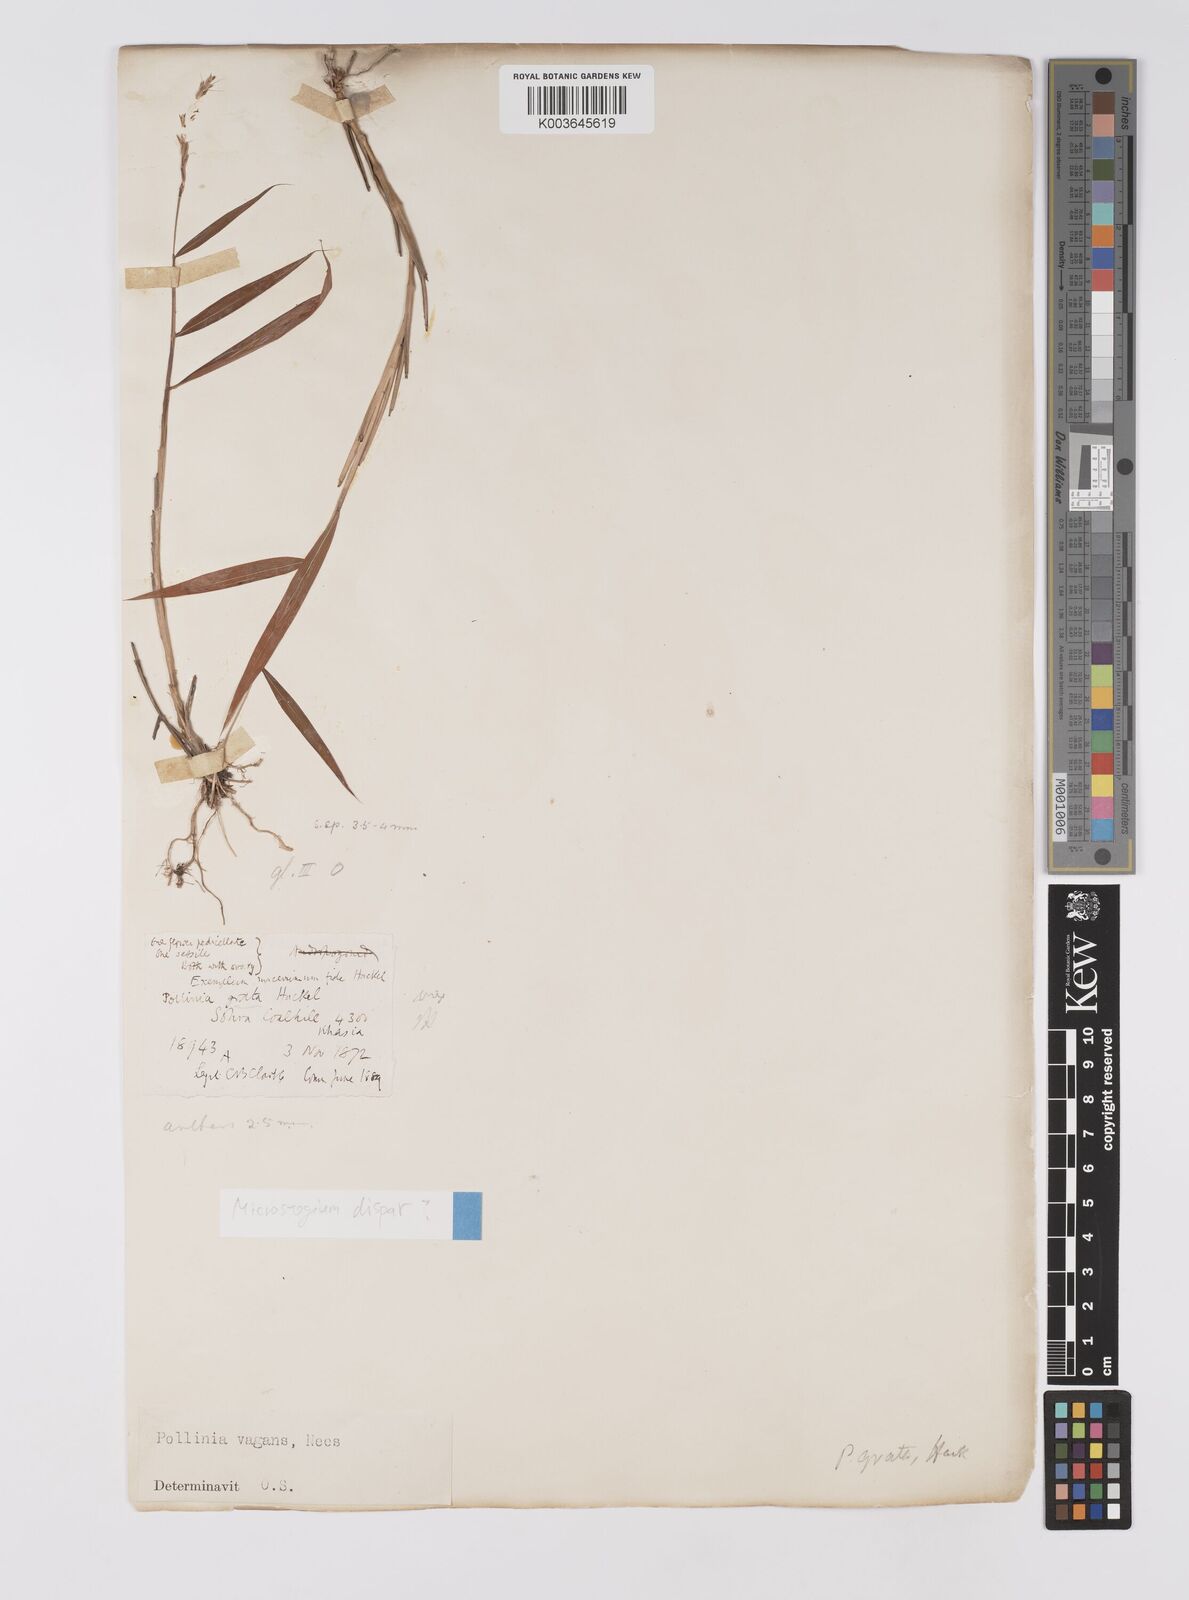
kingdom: Plantae
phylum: Tracheophyta
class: Liliopsida
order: Poales
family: Poaceae
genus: Microstegium
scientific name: Microstegium fasciculatum
